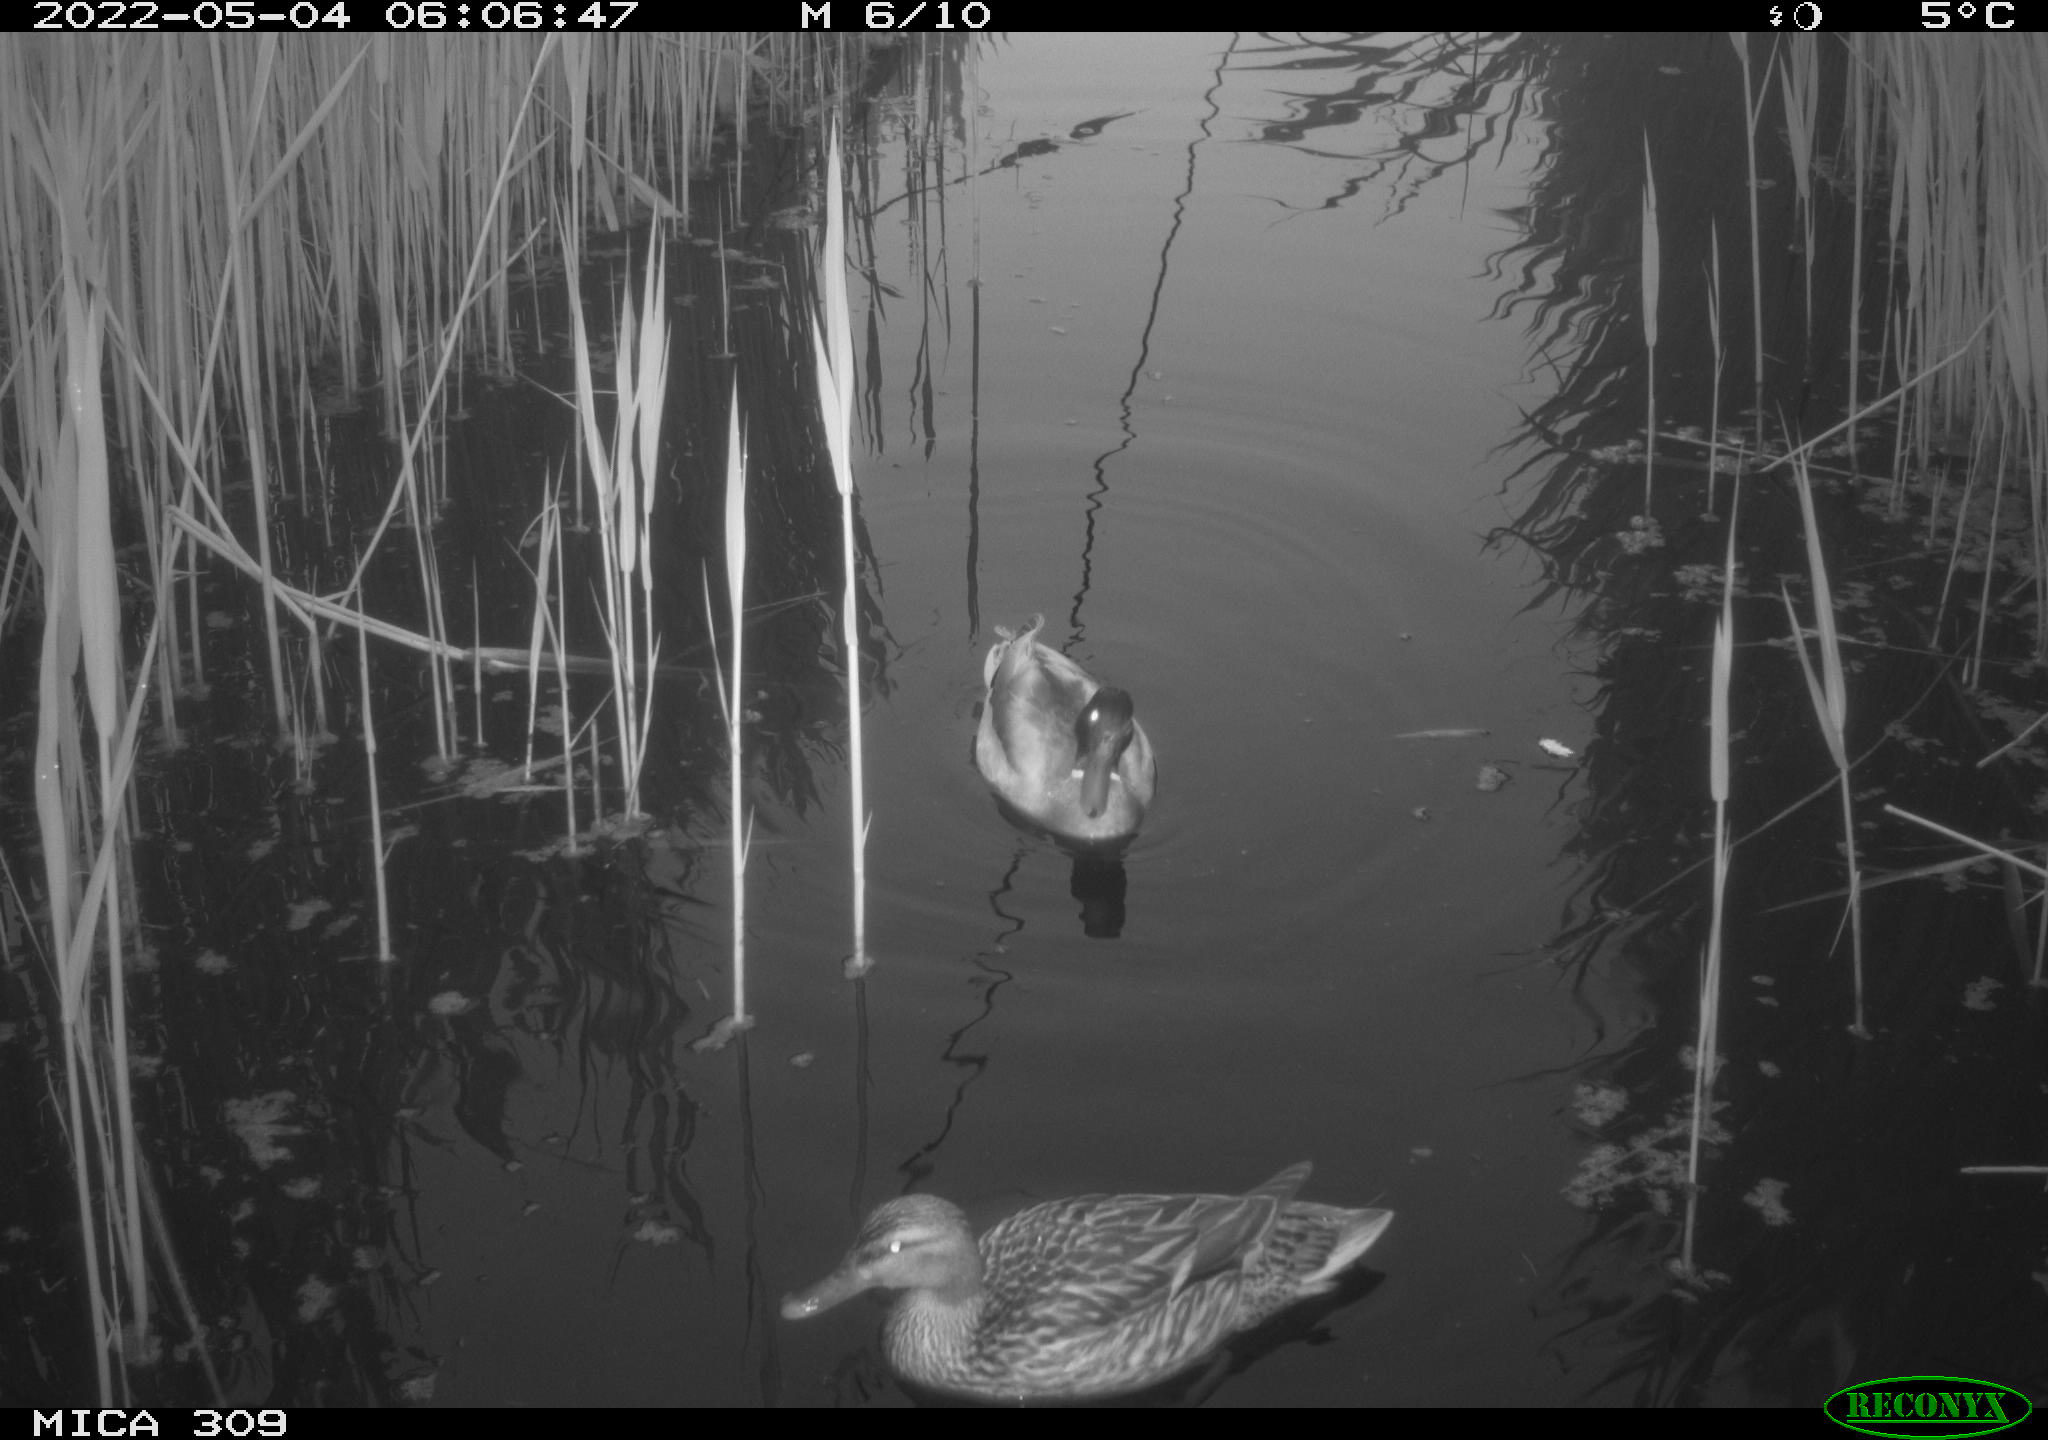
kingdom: Animalia
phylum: Chordata
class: Aves
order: Anseriformes
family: Anatidae
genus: Anas
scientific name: Anas platyrhynchos
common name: Mallard
